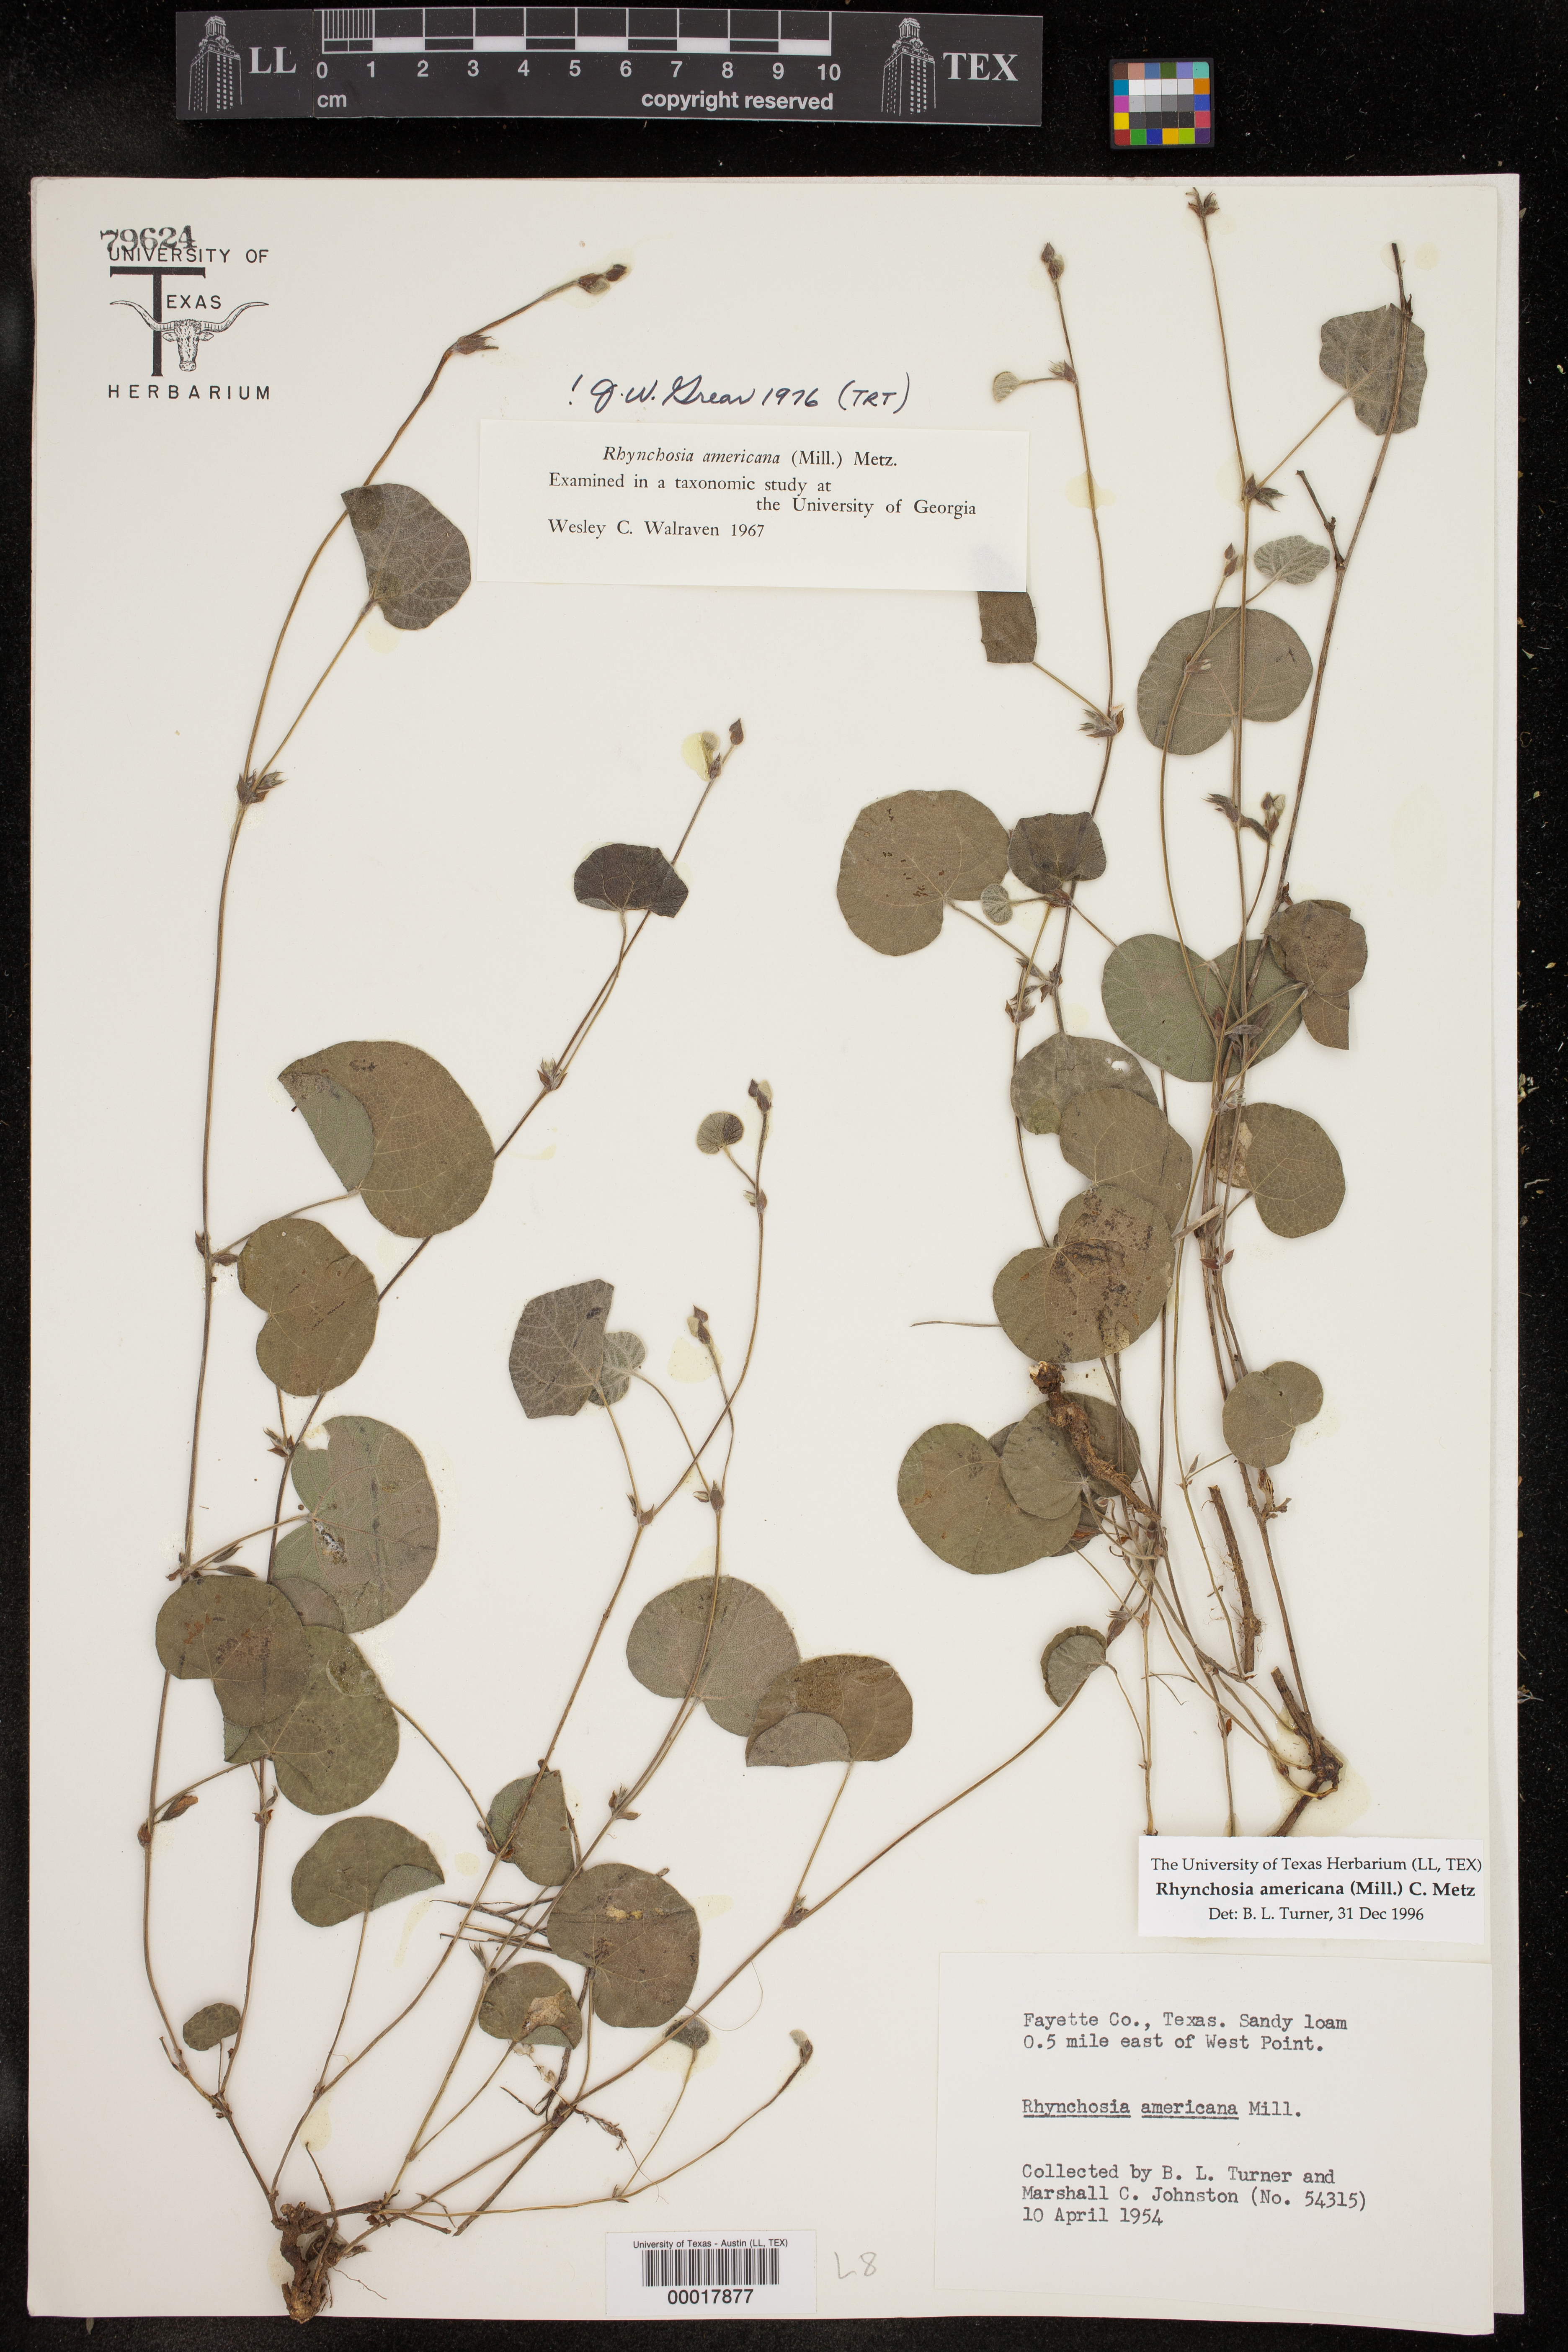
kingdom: Plantae
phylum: Tracheophyta
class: Magnoliopsida
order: Fabales
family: Fabaceae
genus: Rhynchosia
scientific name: Rhynchosia americana
